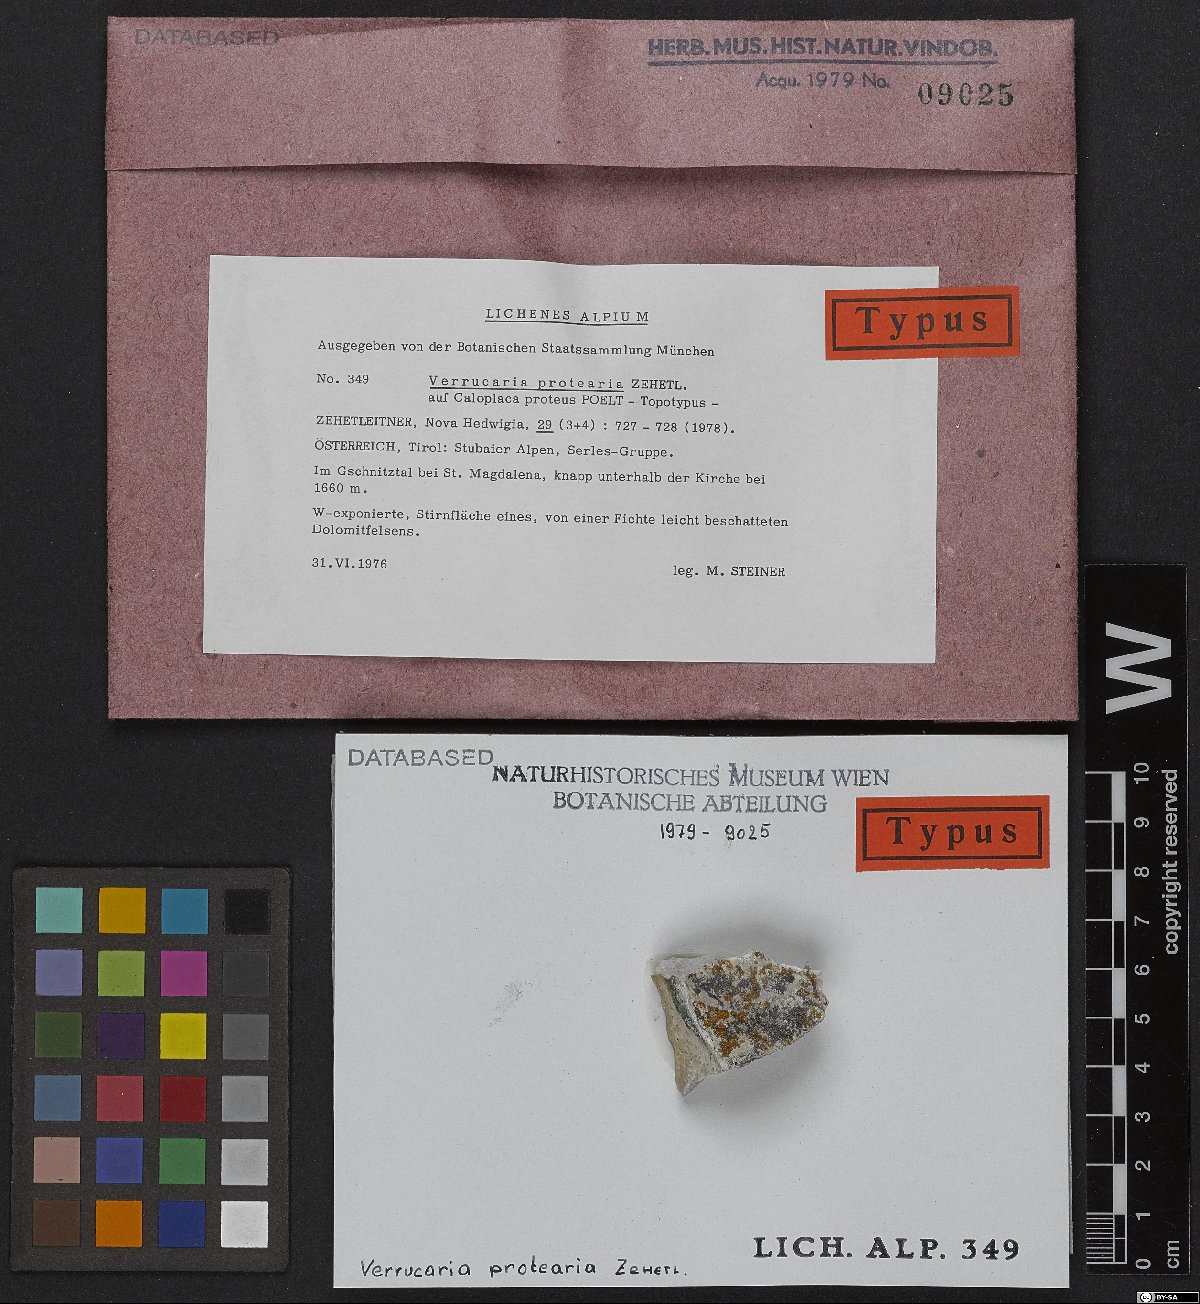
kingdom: Fungi
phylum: Ascomycota
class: Eurotiomycetes
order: Verrucariales
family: Verrucariaceae
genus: Verrucula
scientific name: Verrucula protearia
